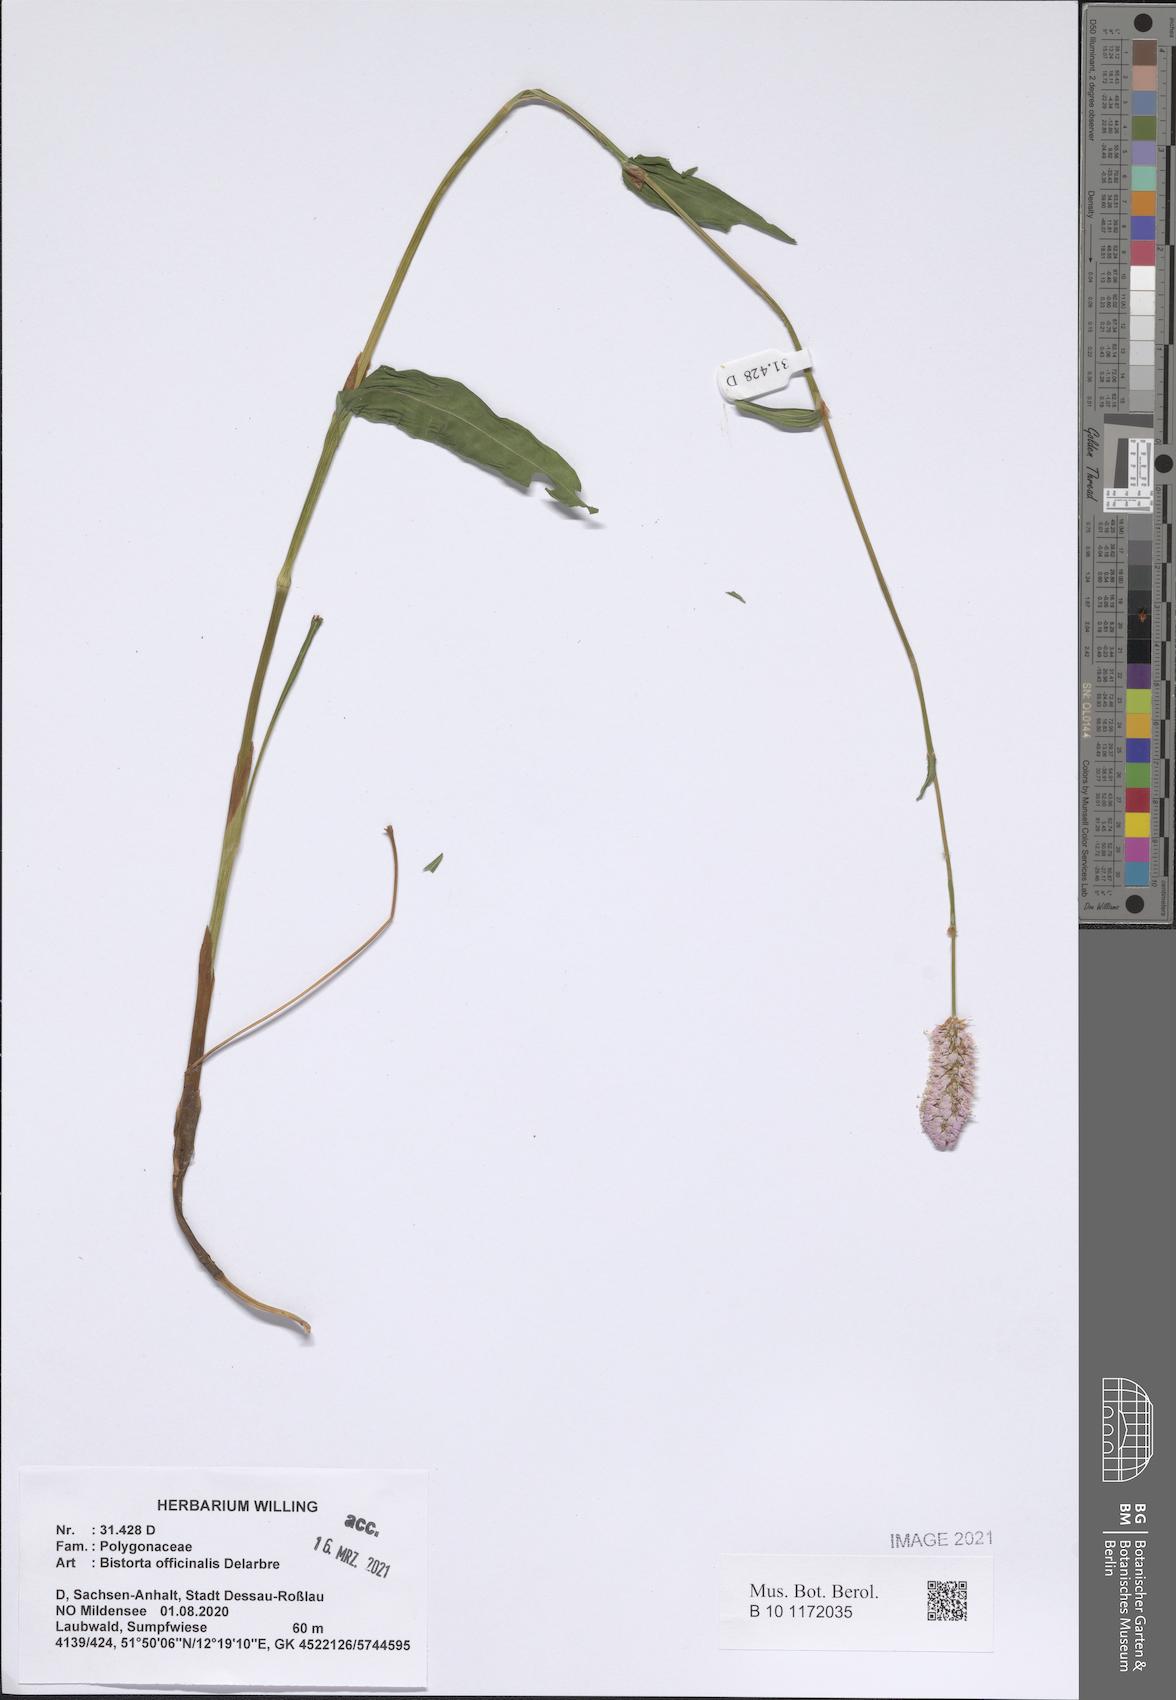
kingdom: Plantae
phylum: Tracheophyta
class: Magnoliopsida
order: Caryophyllales
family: Polygonaceae
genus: Bistorta
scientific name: Bistorta officinalis
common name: Common bistort
